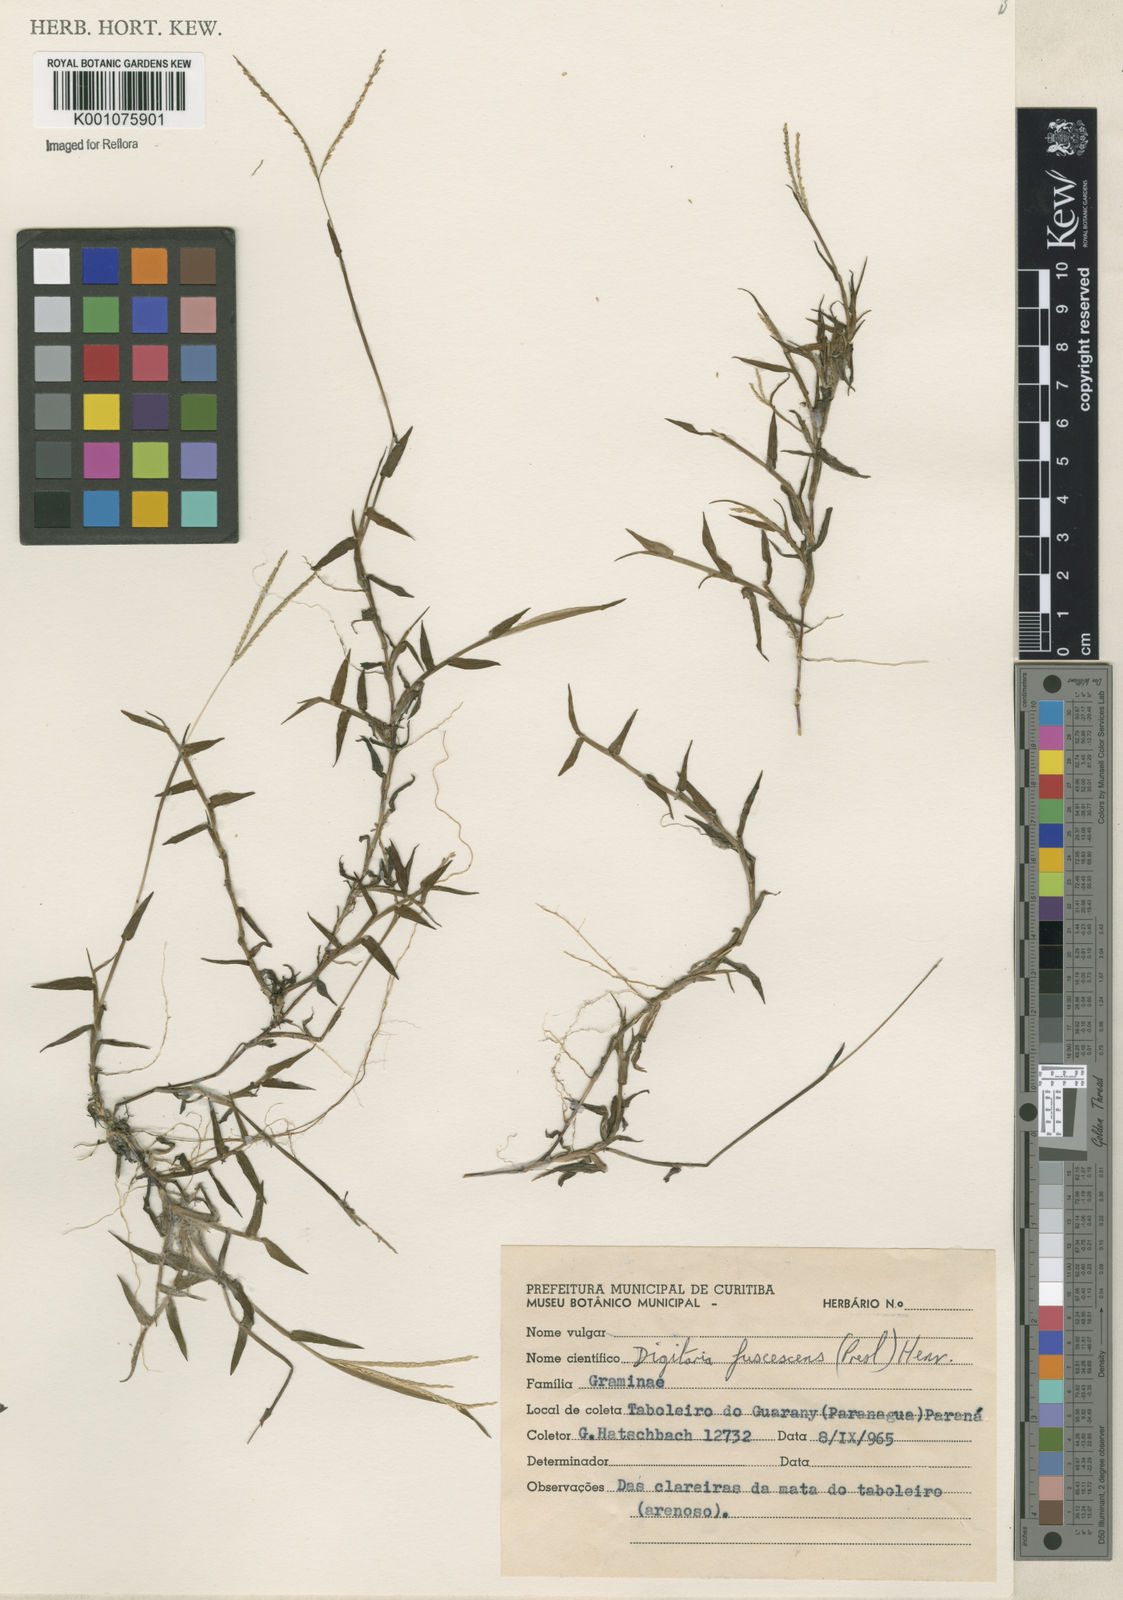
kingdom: Plantae
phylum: Tracheophyta
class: Liliopsida
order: Poales
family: Poaceae
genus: Digitaria
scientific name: Digitaria fuscescens
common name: Yellow crabgrass
